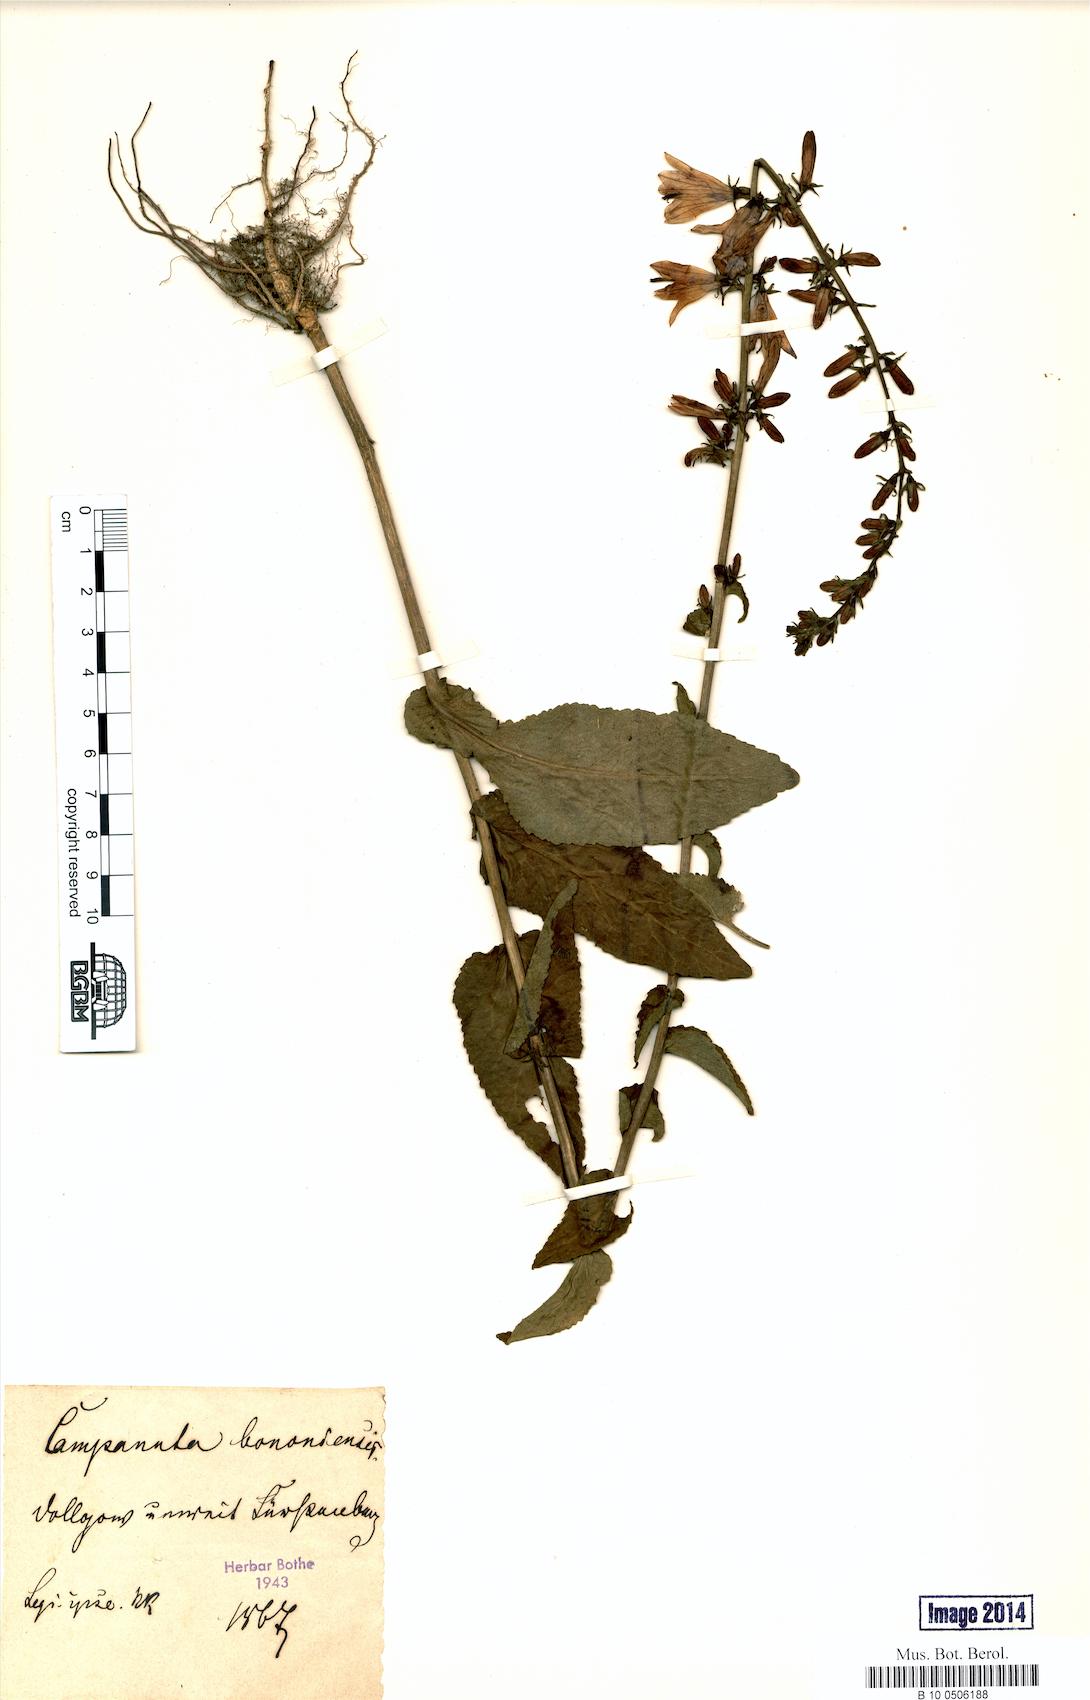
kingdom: Plantae
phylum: Tracheophyta
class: Magnoliopsida
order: Asterales
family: Campanulaceae
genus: Campanula
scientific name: Campanula bononiensis
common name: Pale bellflower
